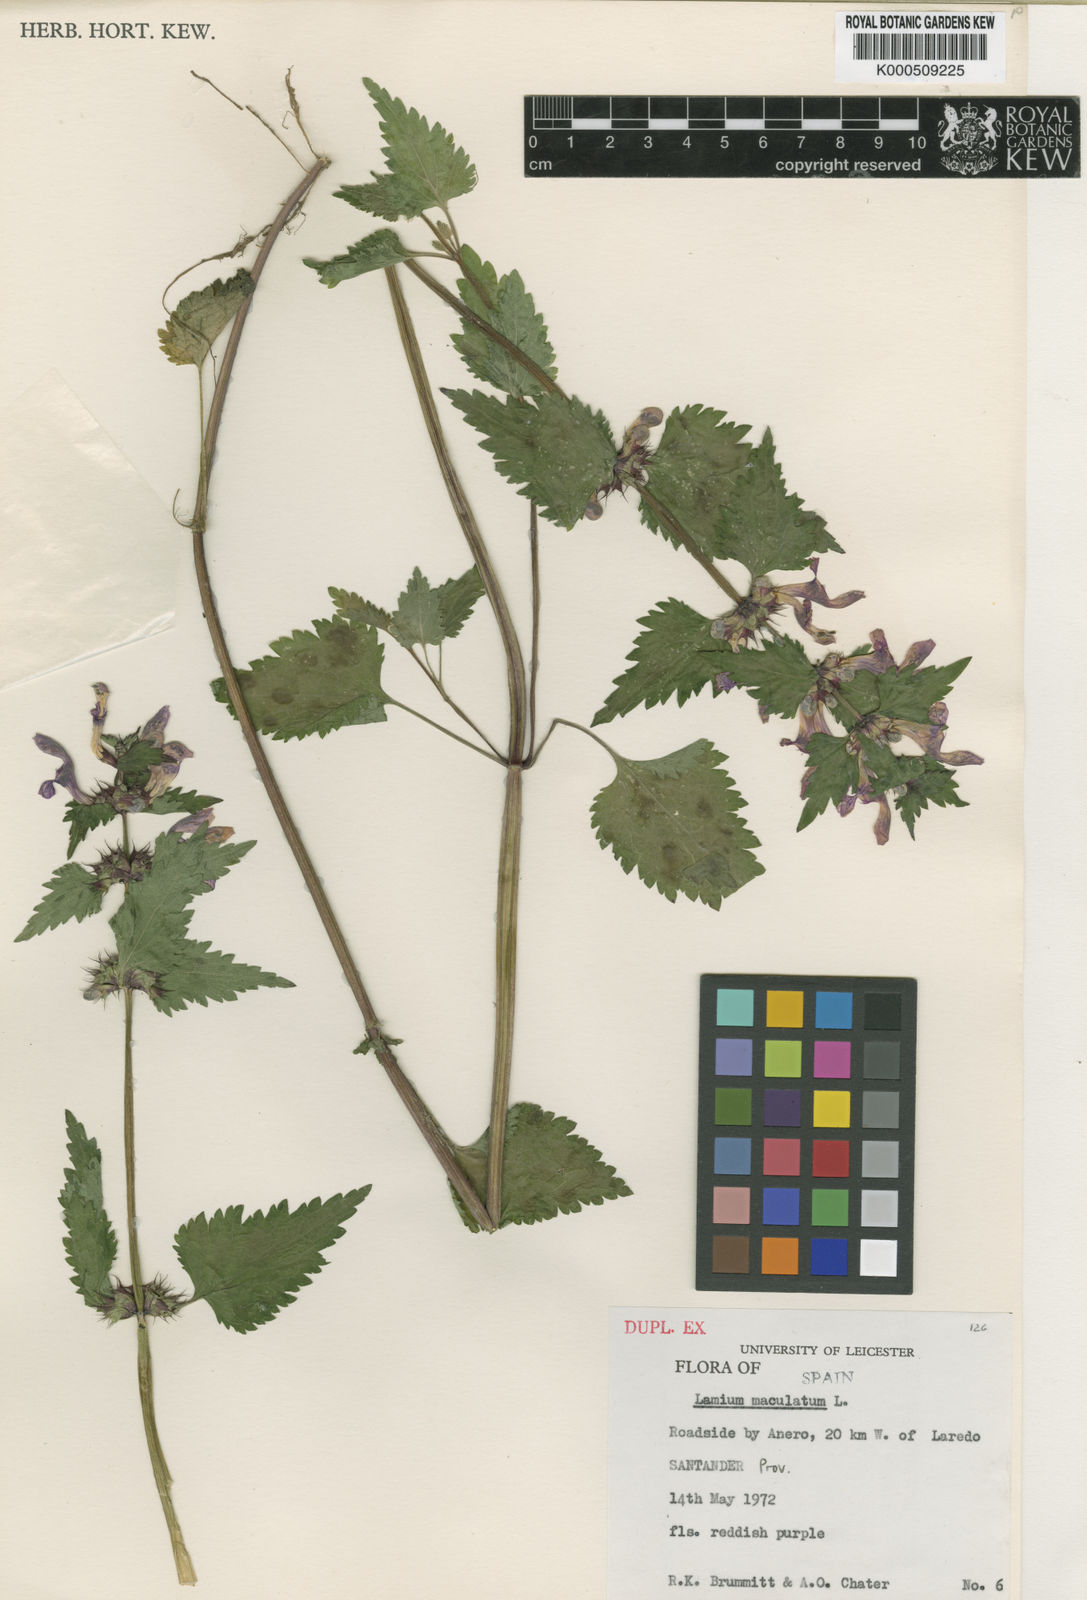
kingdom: Plantae
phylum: Tracheophyta
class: Magnoliopsida
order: Lamiales
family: Lamiaceae
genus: Lamium
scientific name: Lamium maculatum
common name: Spotted dead-nettle
